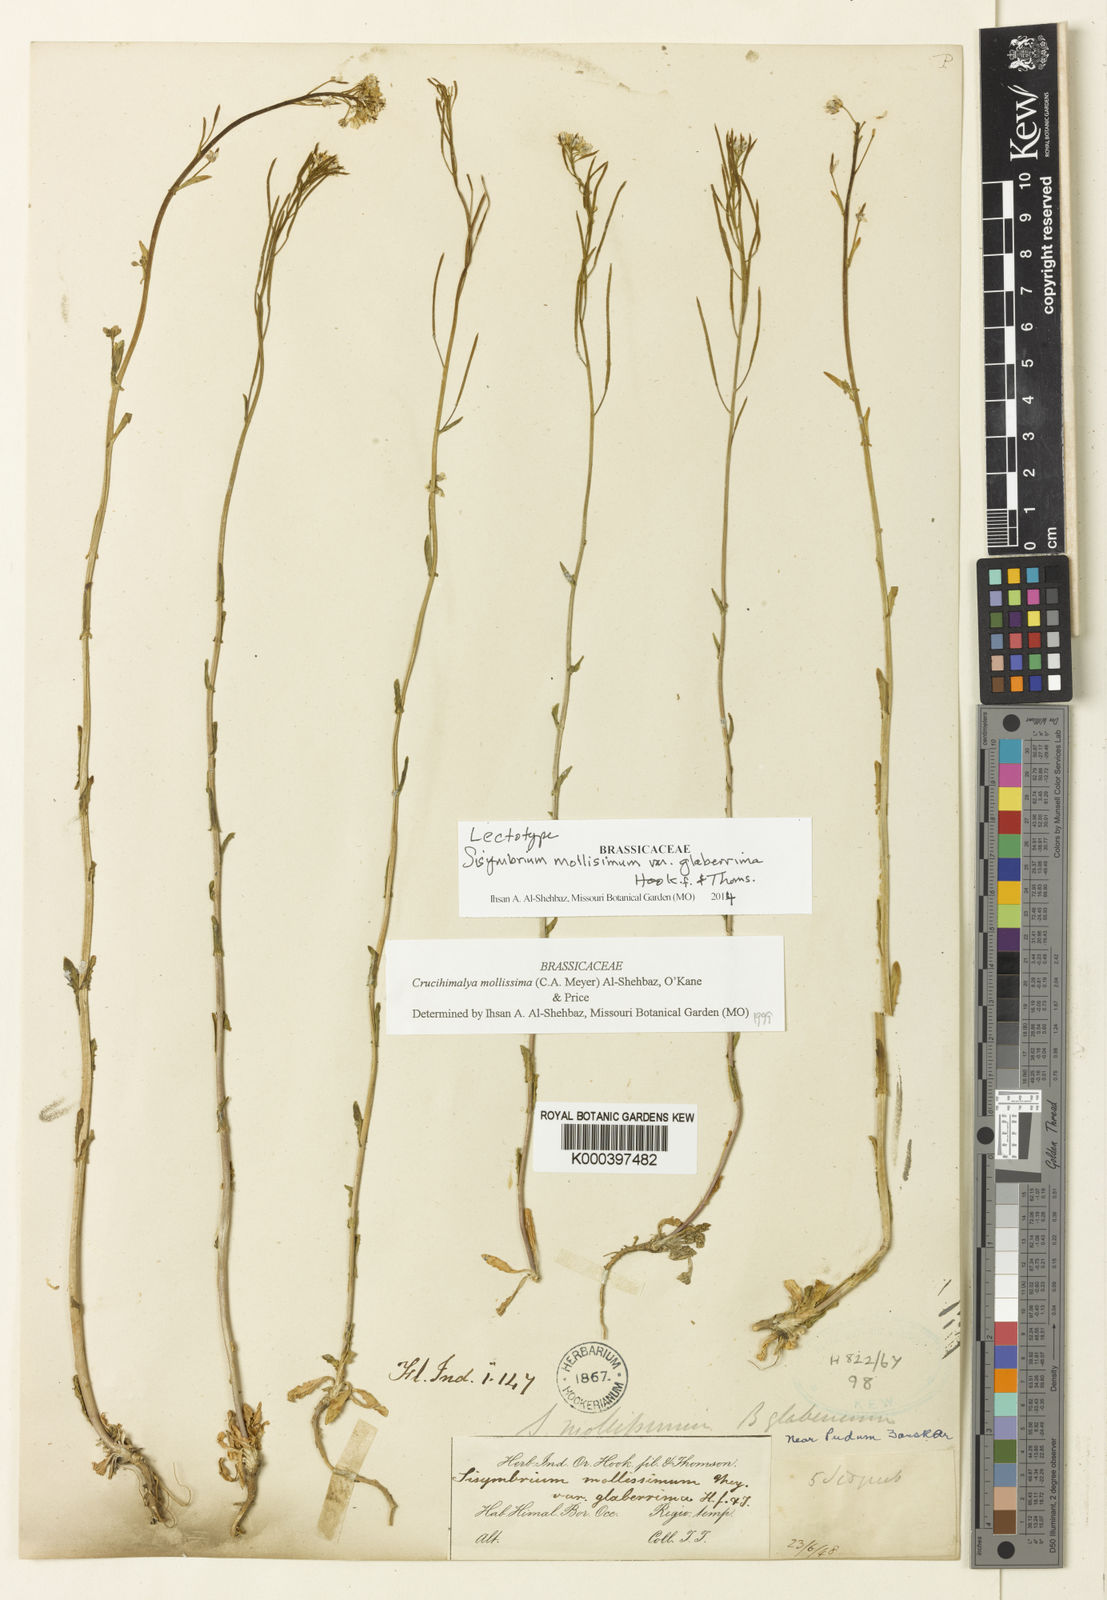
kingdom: Plantae
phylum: Tracheophyta
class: Magnoliopsida
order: Brassicales
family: Brassicaceae
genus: Crucihimalaya
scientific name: Crucihimalaya mollissima
